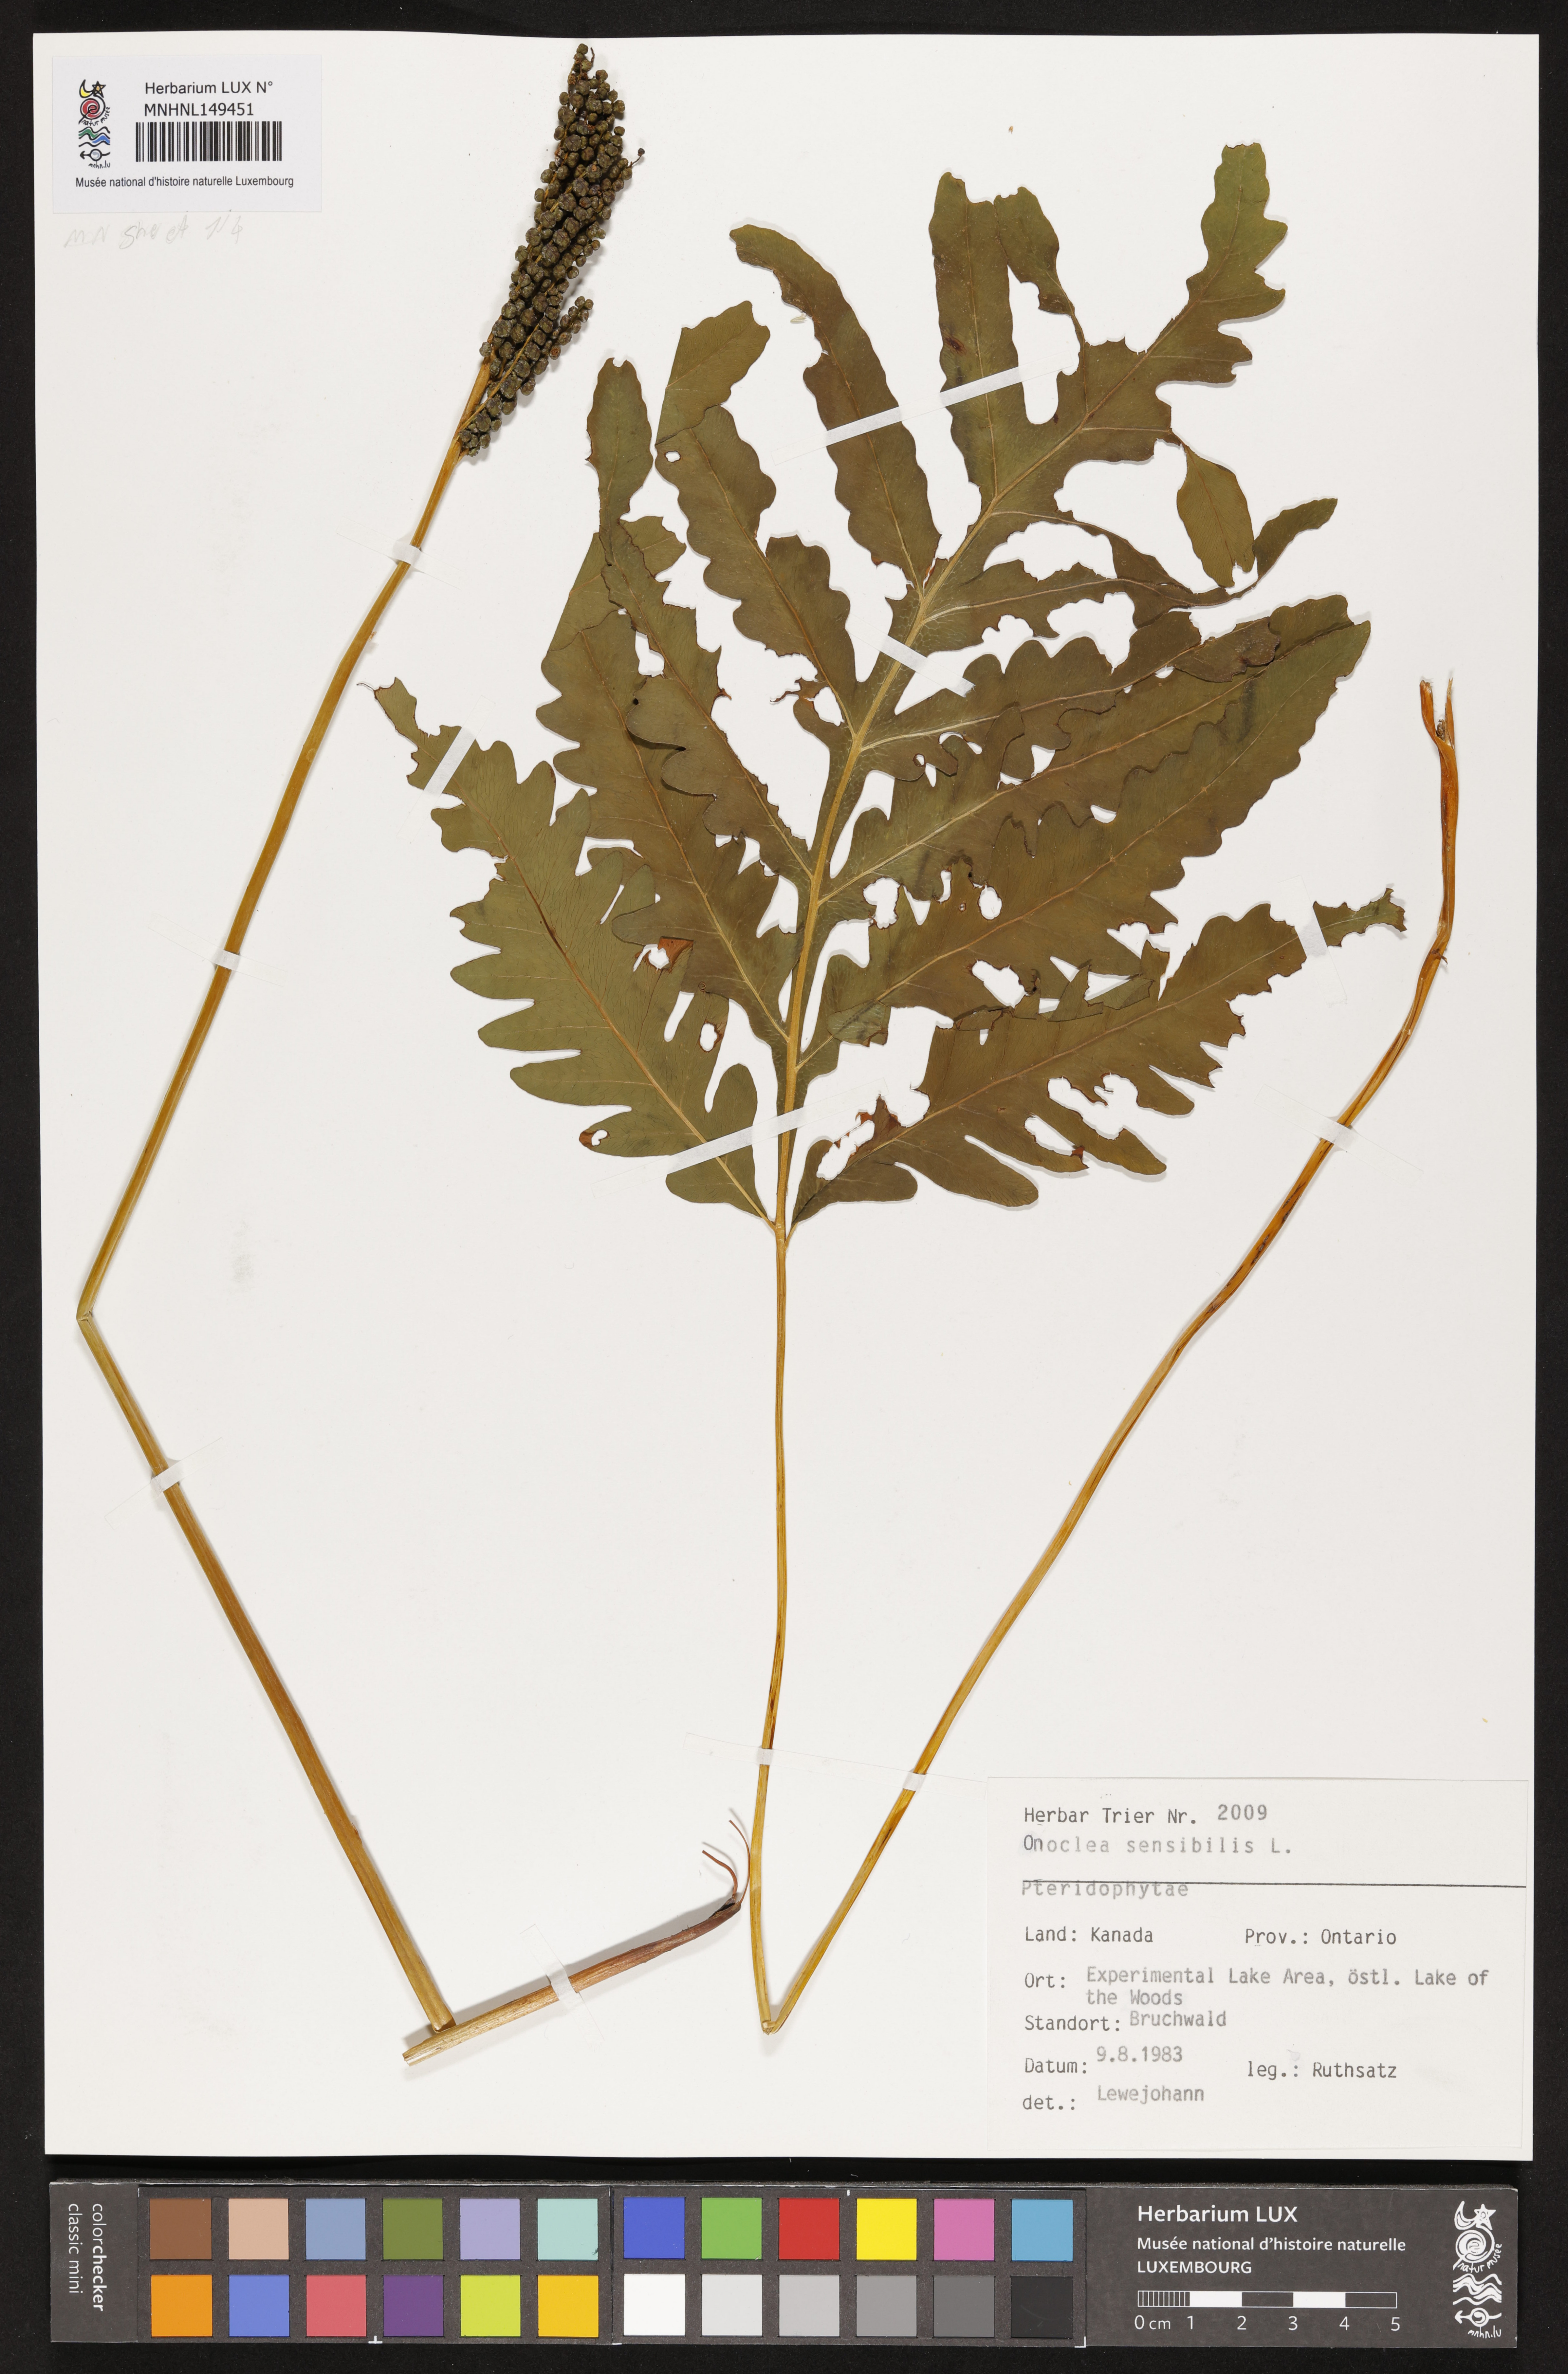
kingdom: Plantae
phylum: Tracheophyta
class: Polypodiopsida
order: Polypodiales
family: Onocleaceae
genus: Onoclea
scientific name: Onoclea sensibilis
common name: Sensitive fern
